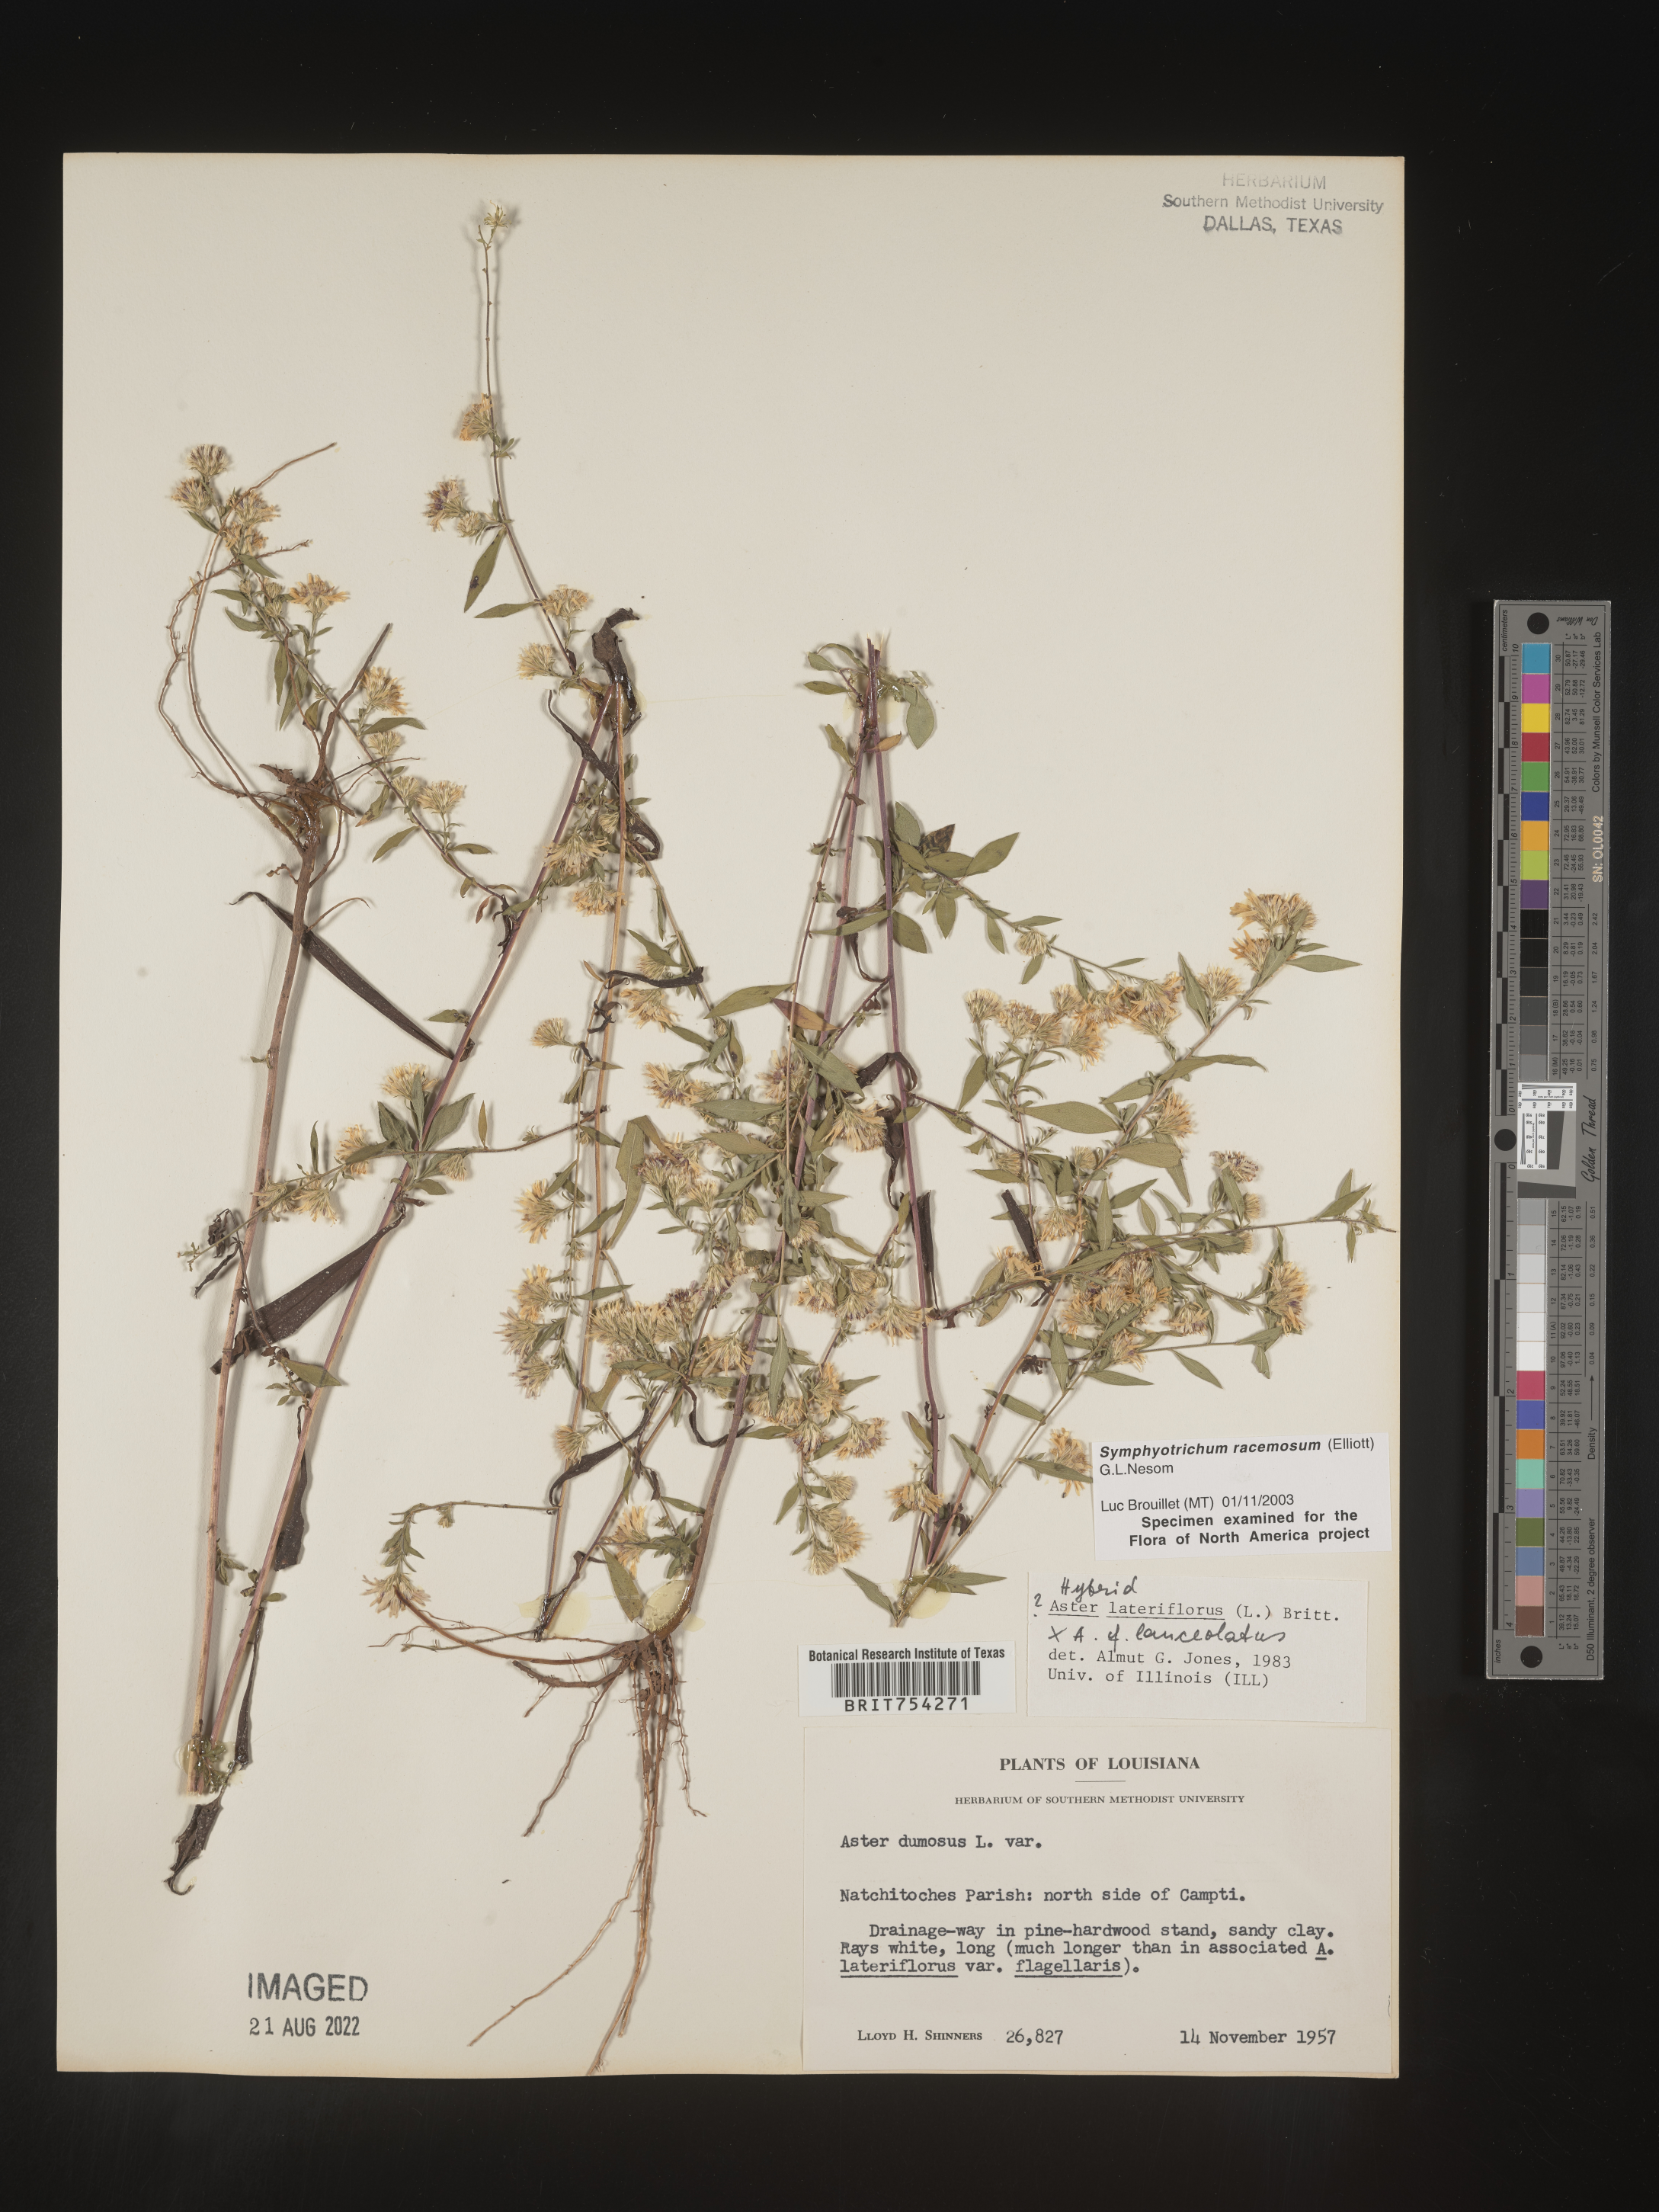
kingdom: Plantae
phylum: Tracheophyta
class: Magnoliopsida
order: Asterales
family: Asteraceae
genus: Symphyotrichum
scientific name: Symphyotrichum racemosum
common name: Small white aster
